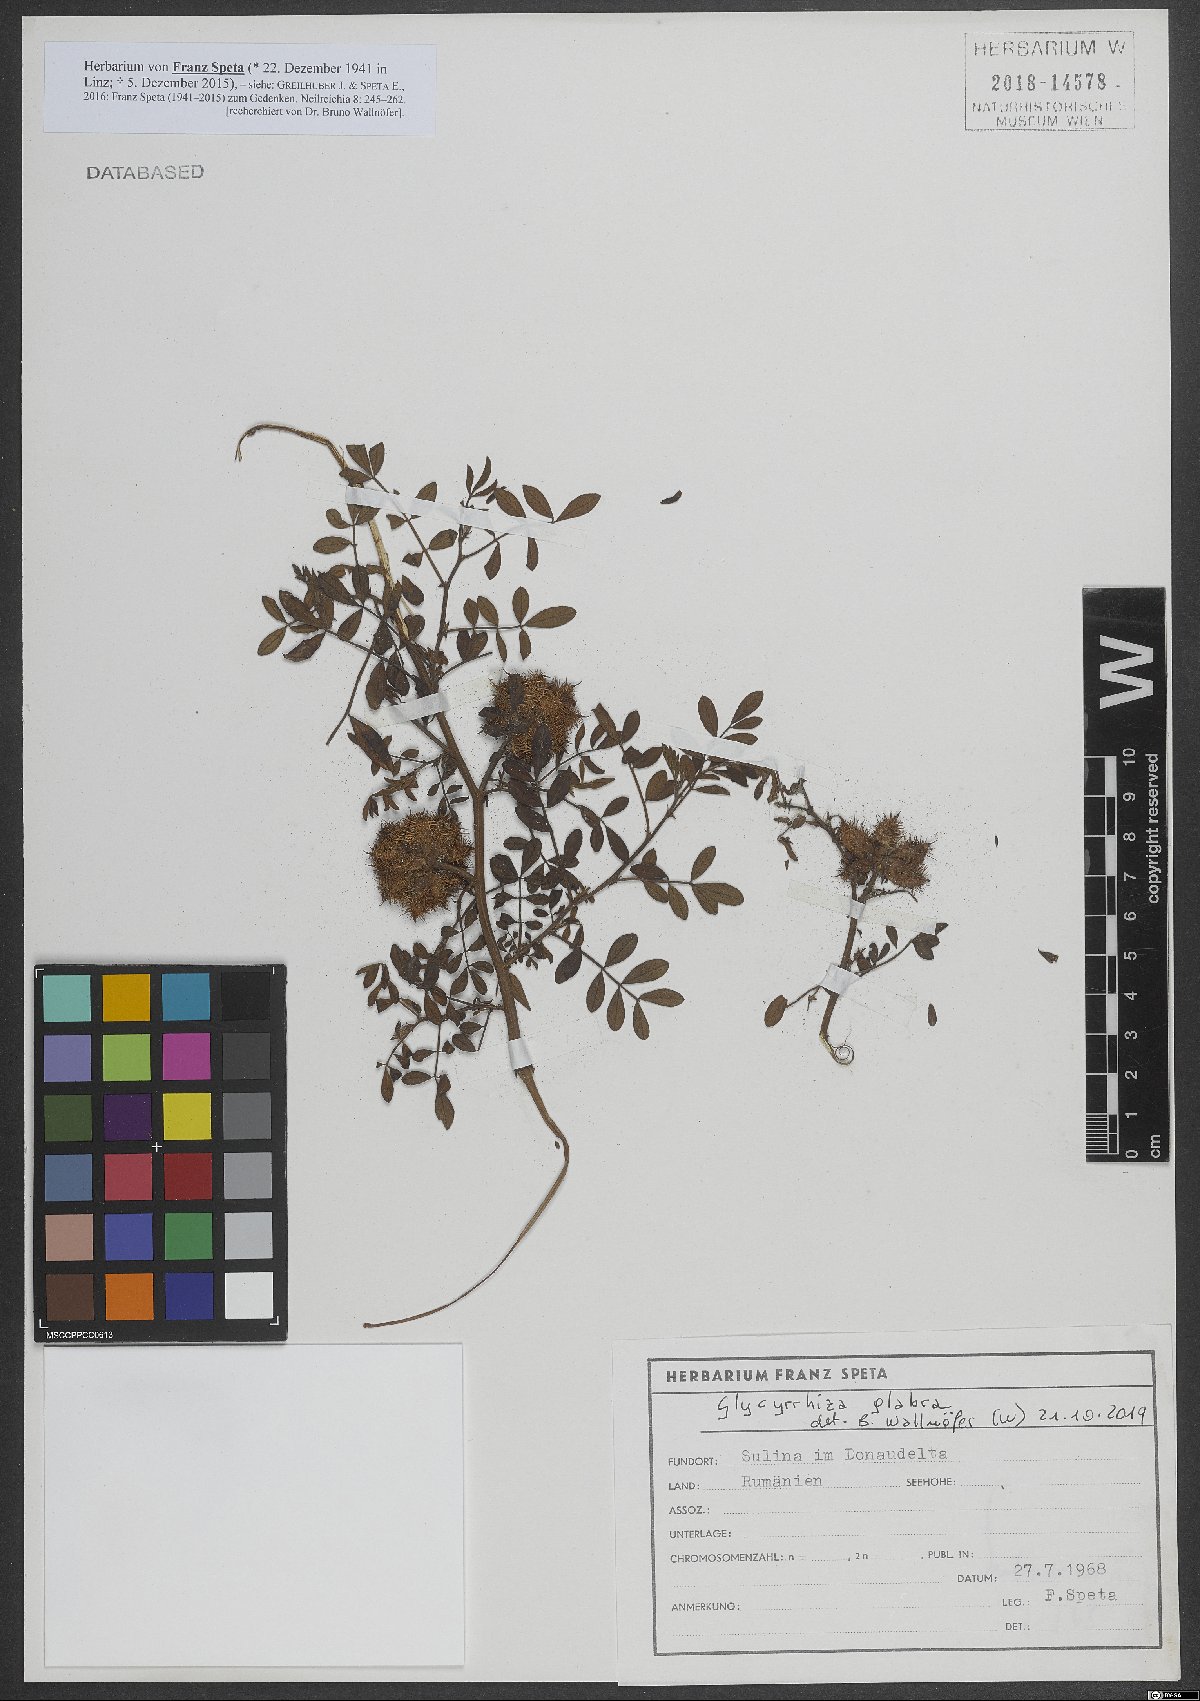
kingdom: Plantae
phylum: Tracheophyta
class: Magnoliopsida
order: Fabales
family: Fabaceae
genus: Glycyrrhiza
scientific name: Glycyrrhiza glabra
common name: Liquorice
